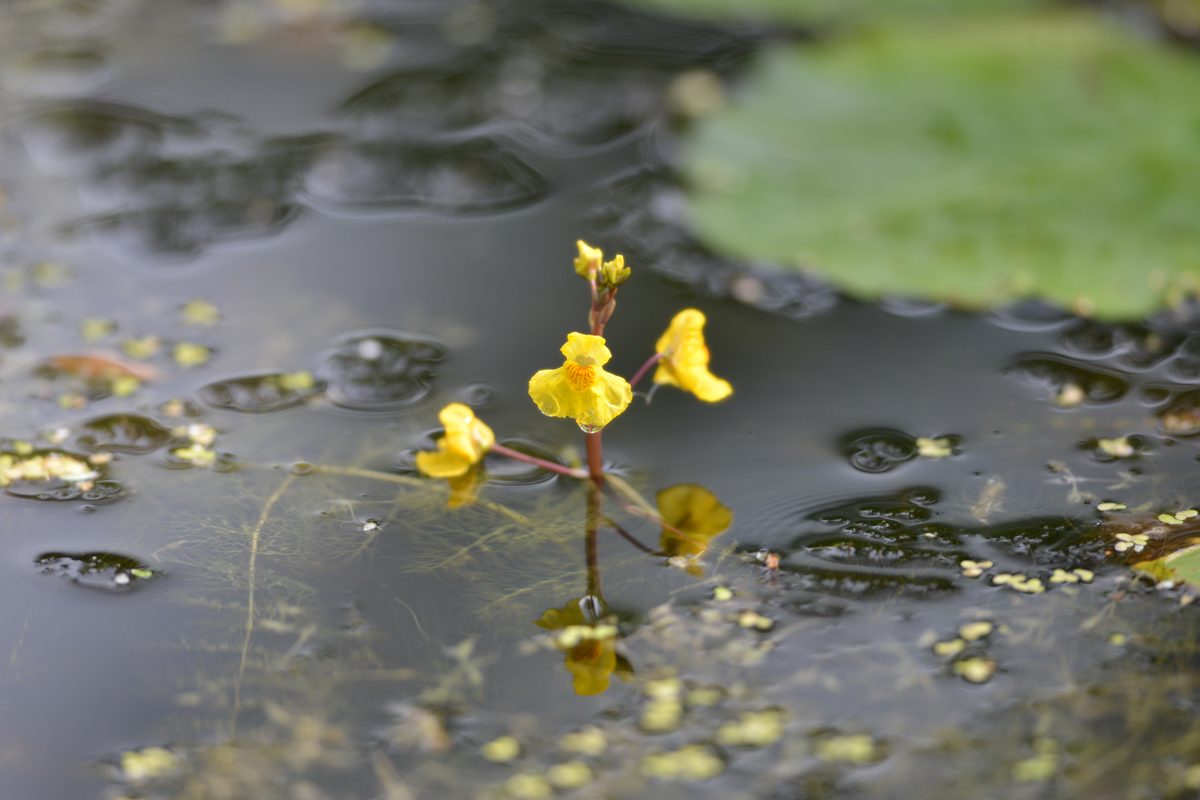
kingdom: Plantae
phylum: Tracheophyta
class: Magnoliopsida
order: Lamiales
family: Lentibulariaceae
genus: Utricularia
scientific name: Utricularia vulgaris
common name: Greater bladderwort
